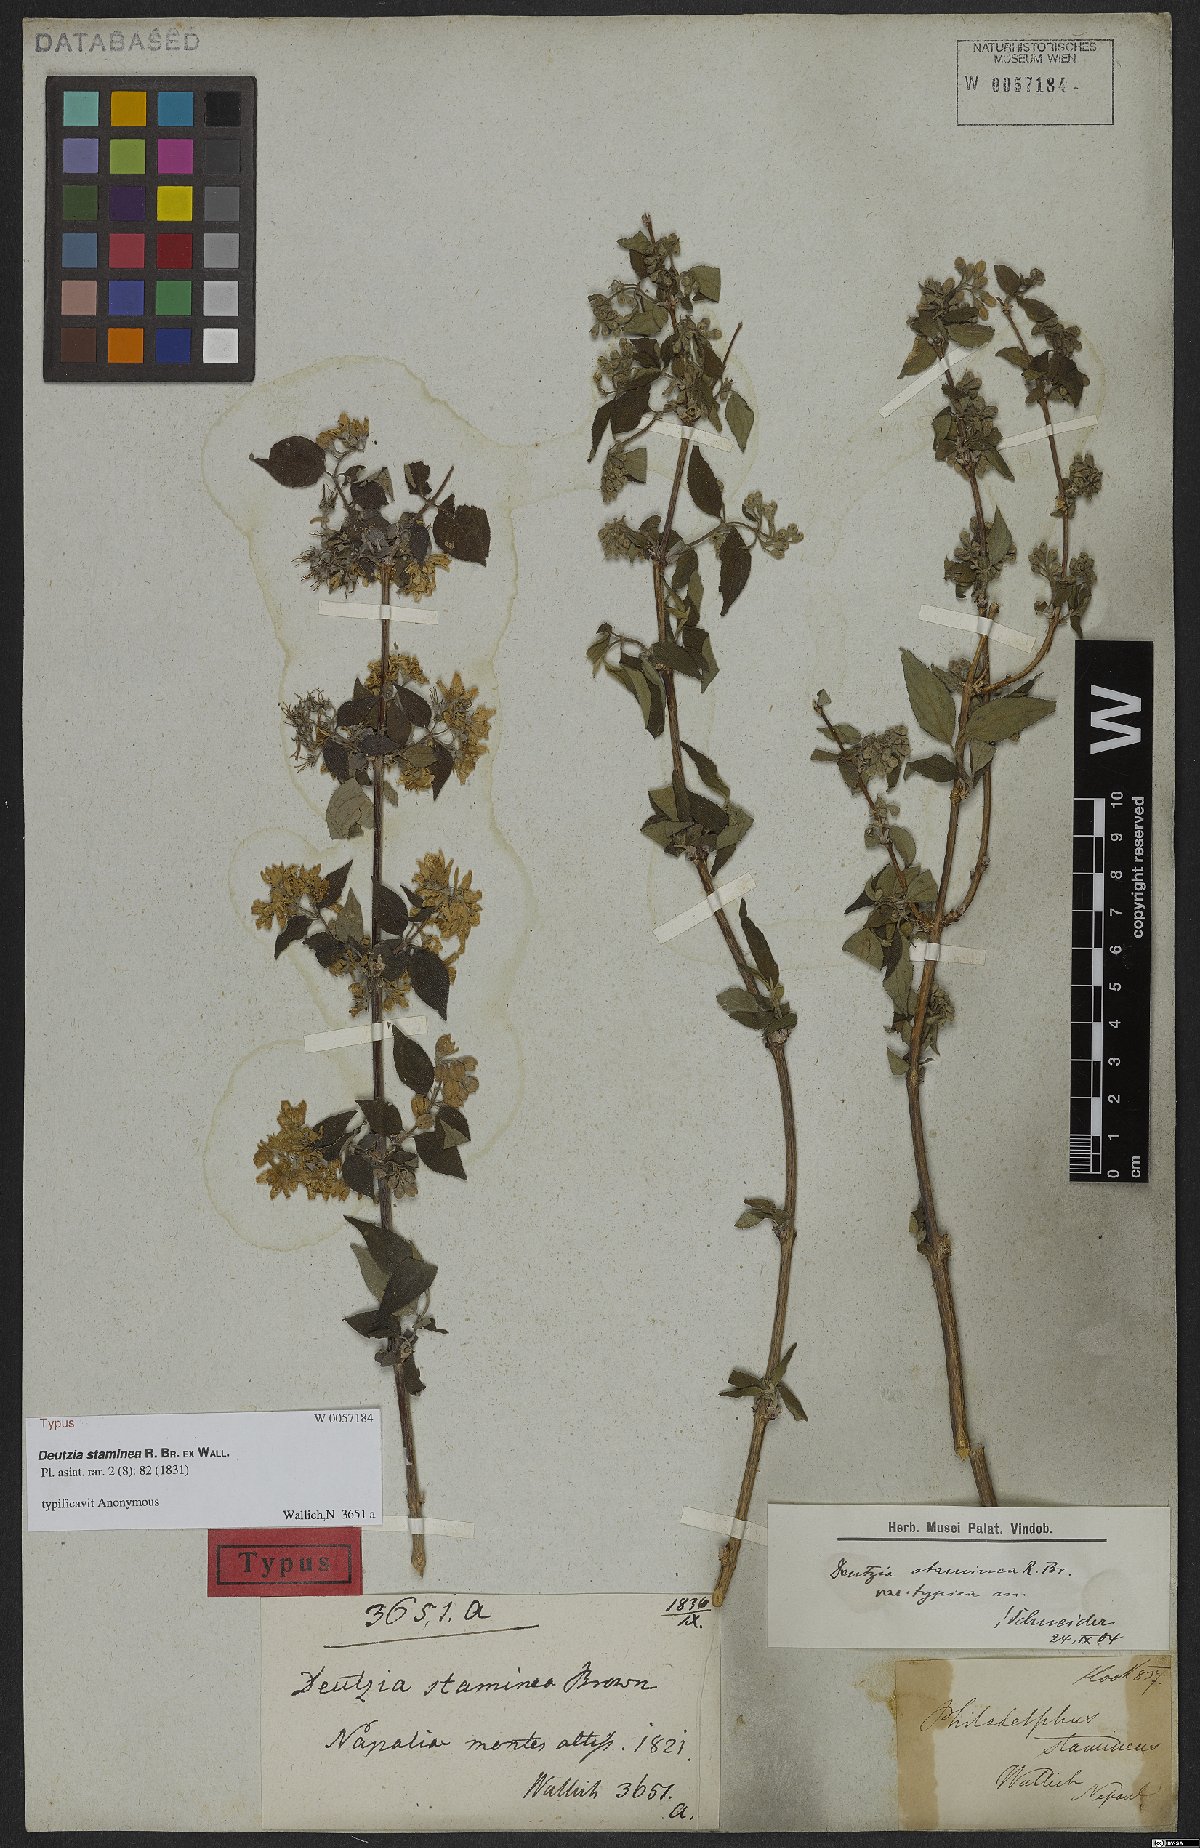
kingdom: Plantae
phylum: Tracheophyta
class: Magnoliopsida
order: Cornales
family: Hydrangeaceae
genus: Deutzia
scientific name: Deutzia staminea
